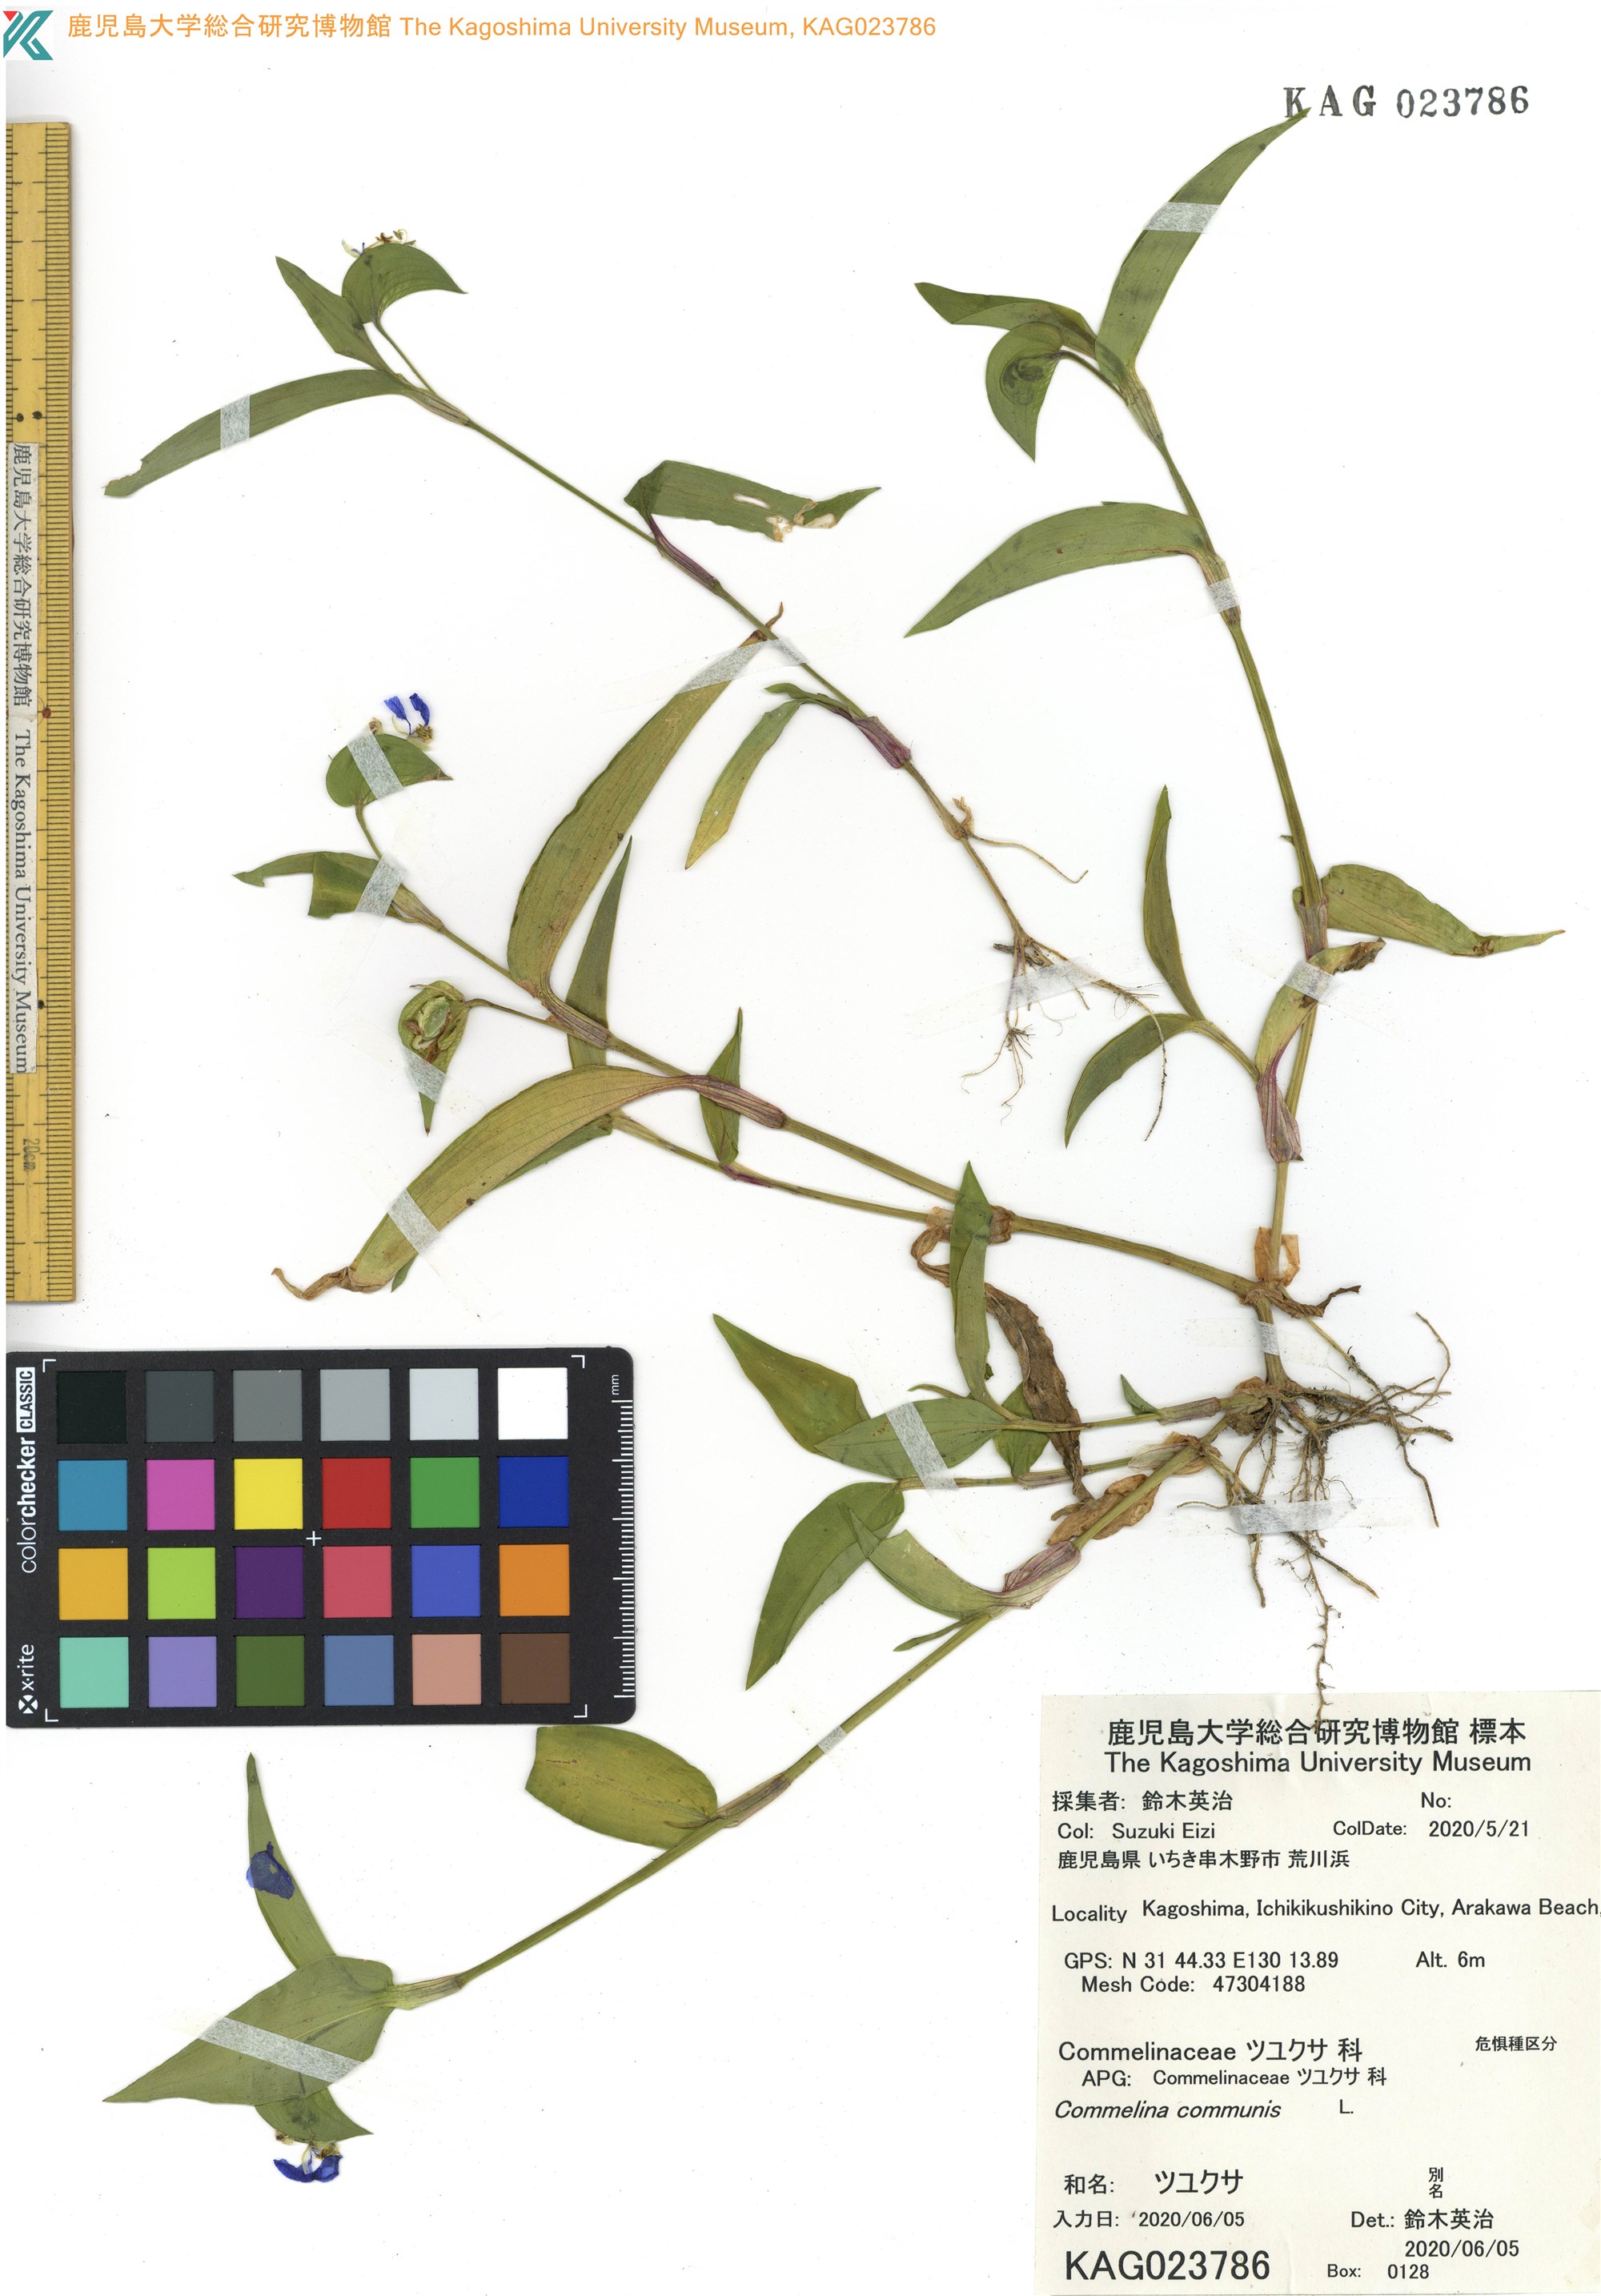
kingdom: Plantae
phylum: Tracheophyta
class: Liliopsida
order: Commelinales
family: Commelinaceae
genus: Commelina
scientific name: Commelina communis
